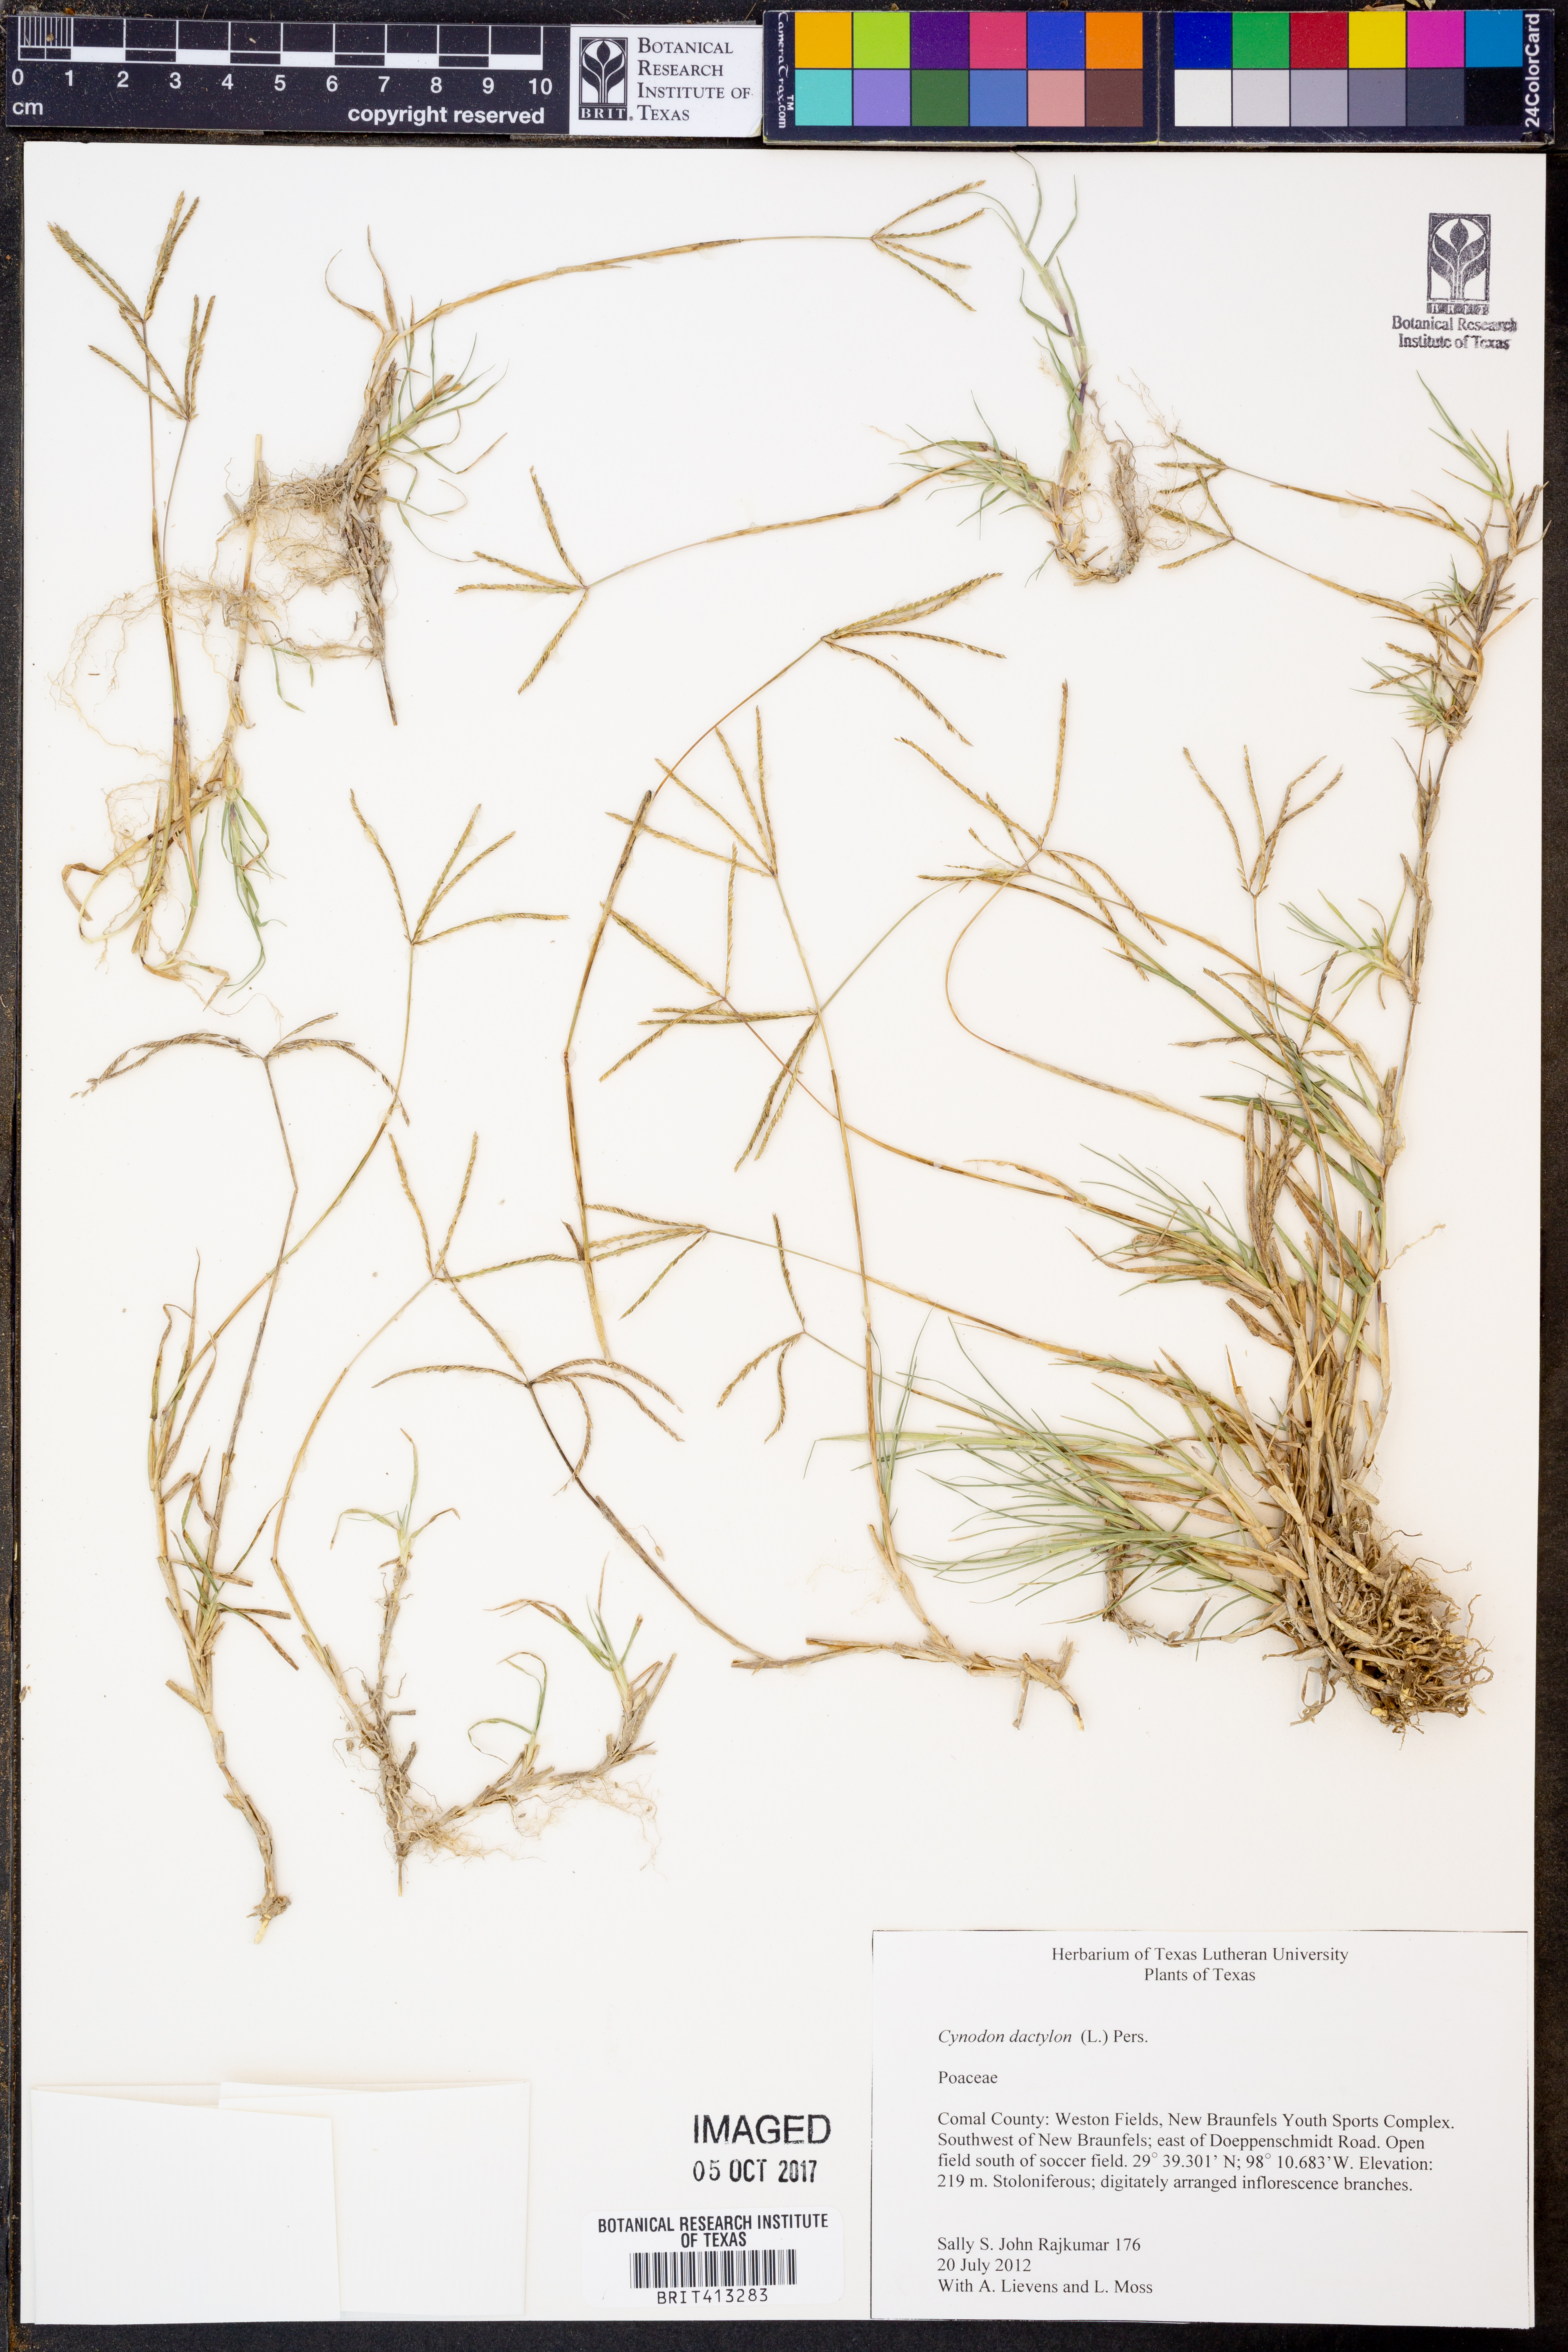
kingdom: Plantae
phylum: Tracheophyta
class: Liliopsida
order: Poales
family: Poaceae
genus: Cynodon
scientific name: Cynodon dactylon
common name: Bermuda grass
